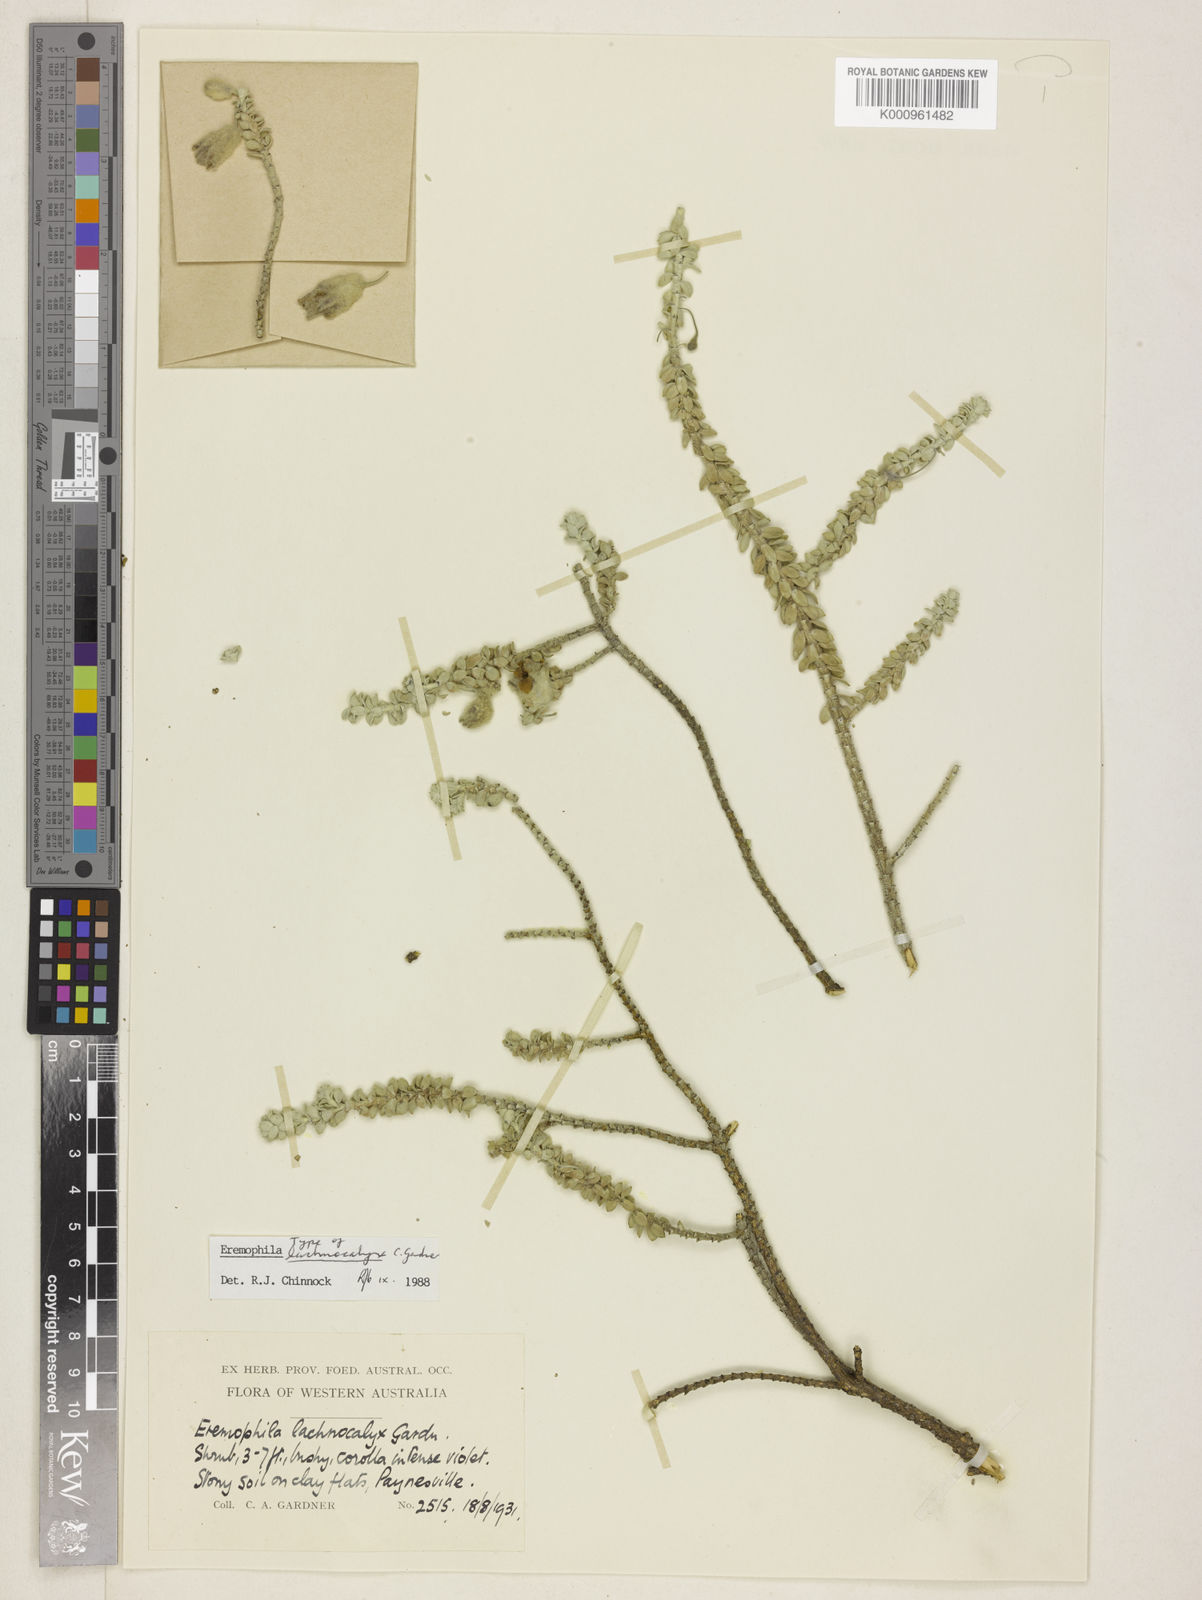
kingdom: Plantae
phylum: Tracheophyta
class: Magnoliopsida
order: Lamiales
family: Scrophulariaceae
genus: Eremophila
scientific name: Eremophila lachnocalyx
